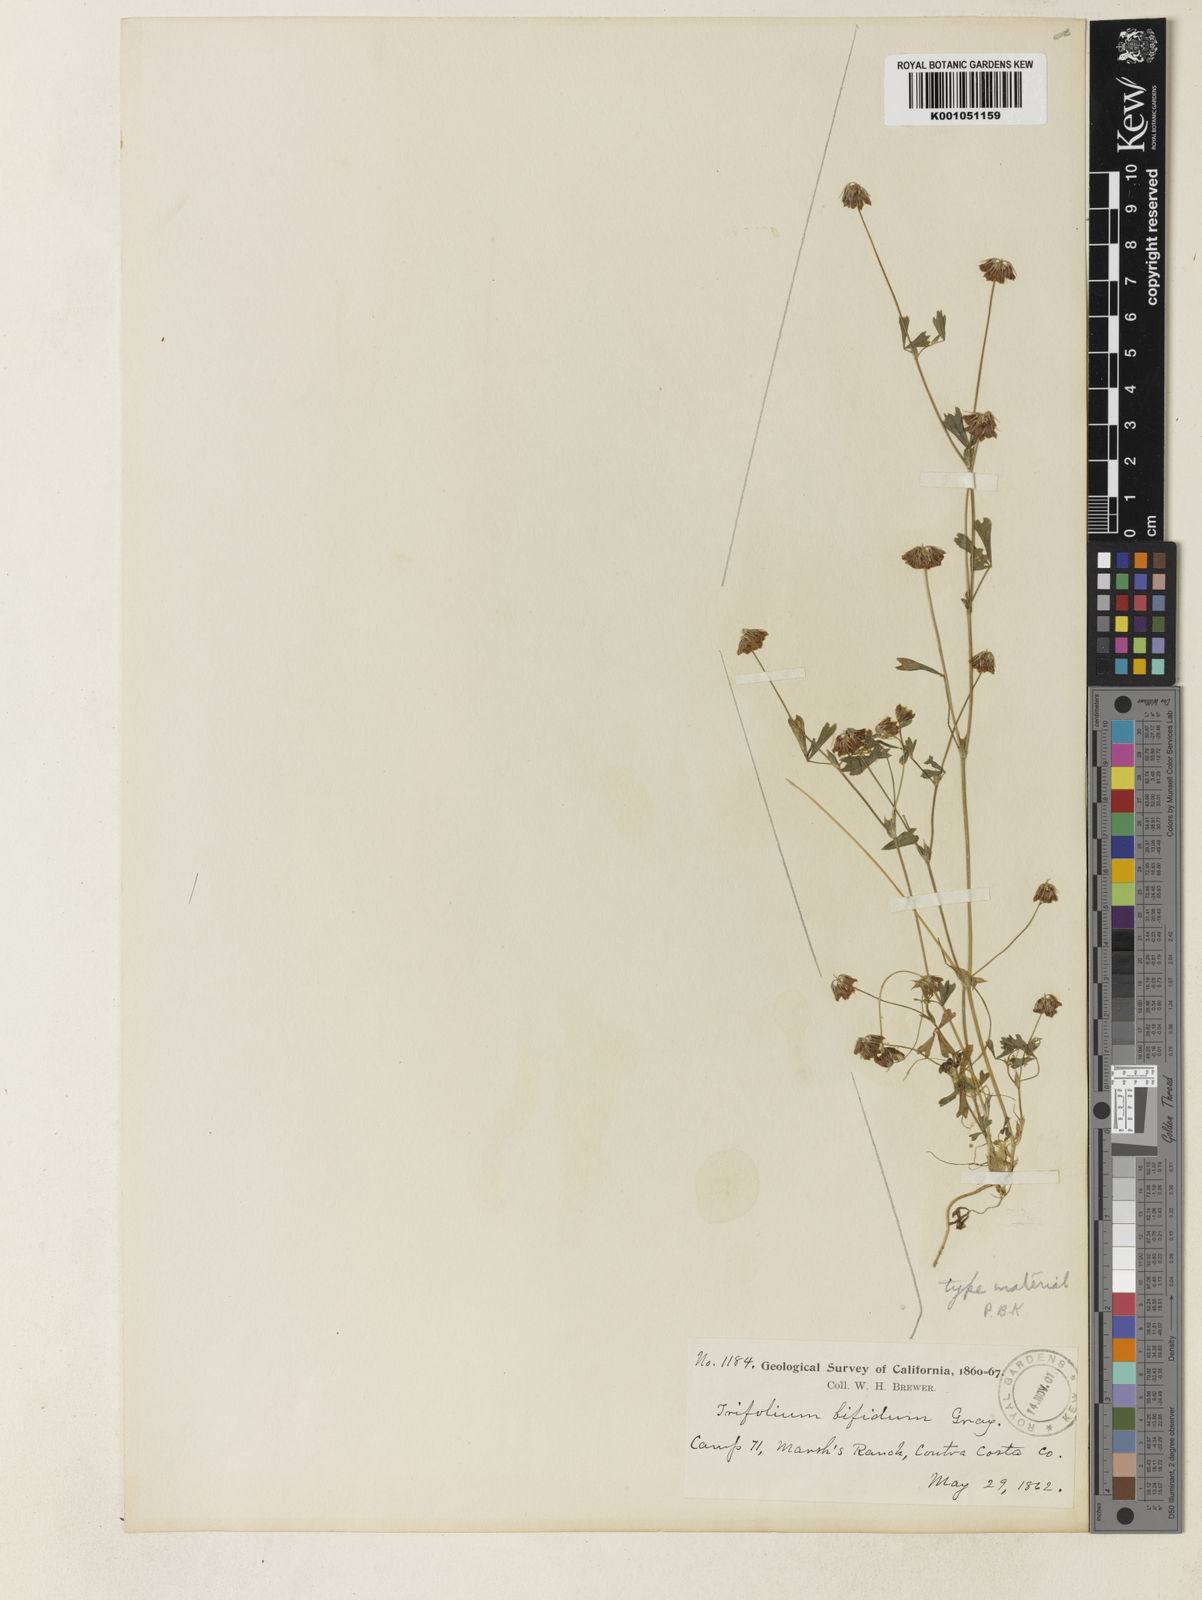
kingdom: Plantae
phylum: Tracheophyta
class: Magnoliopsida
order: Fabales
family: Fabaceae
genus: Trifolium
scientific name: Trifolium bifidum
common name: Notch-leaf clover
